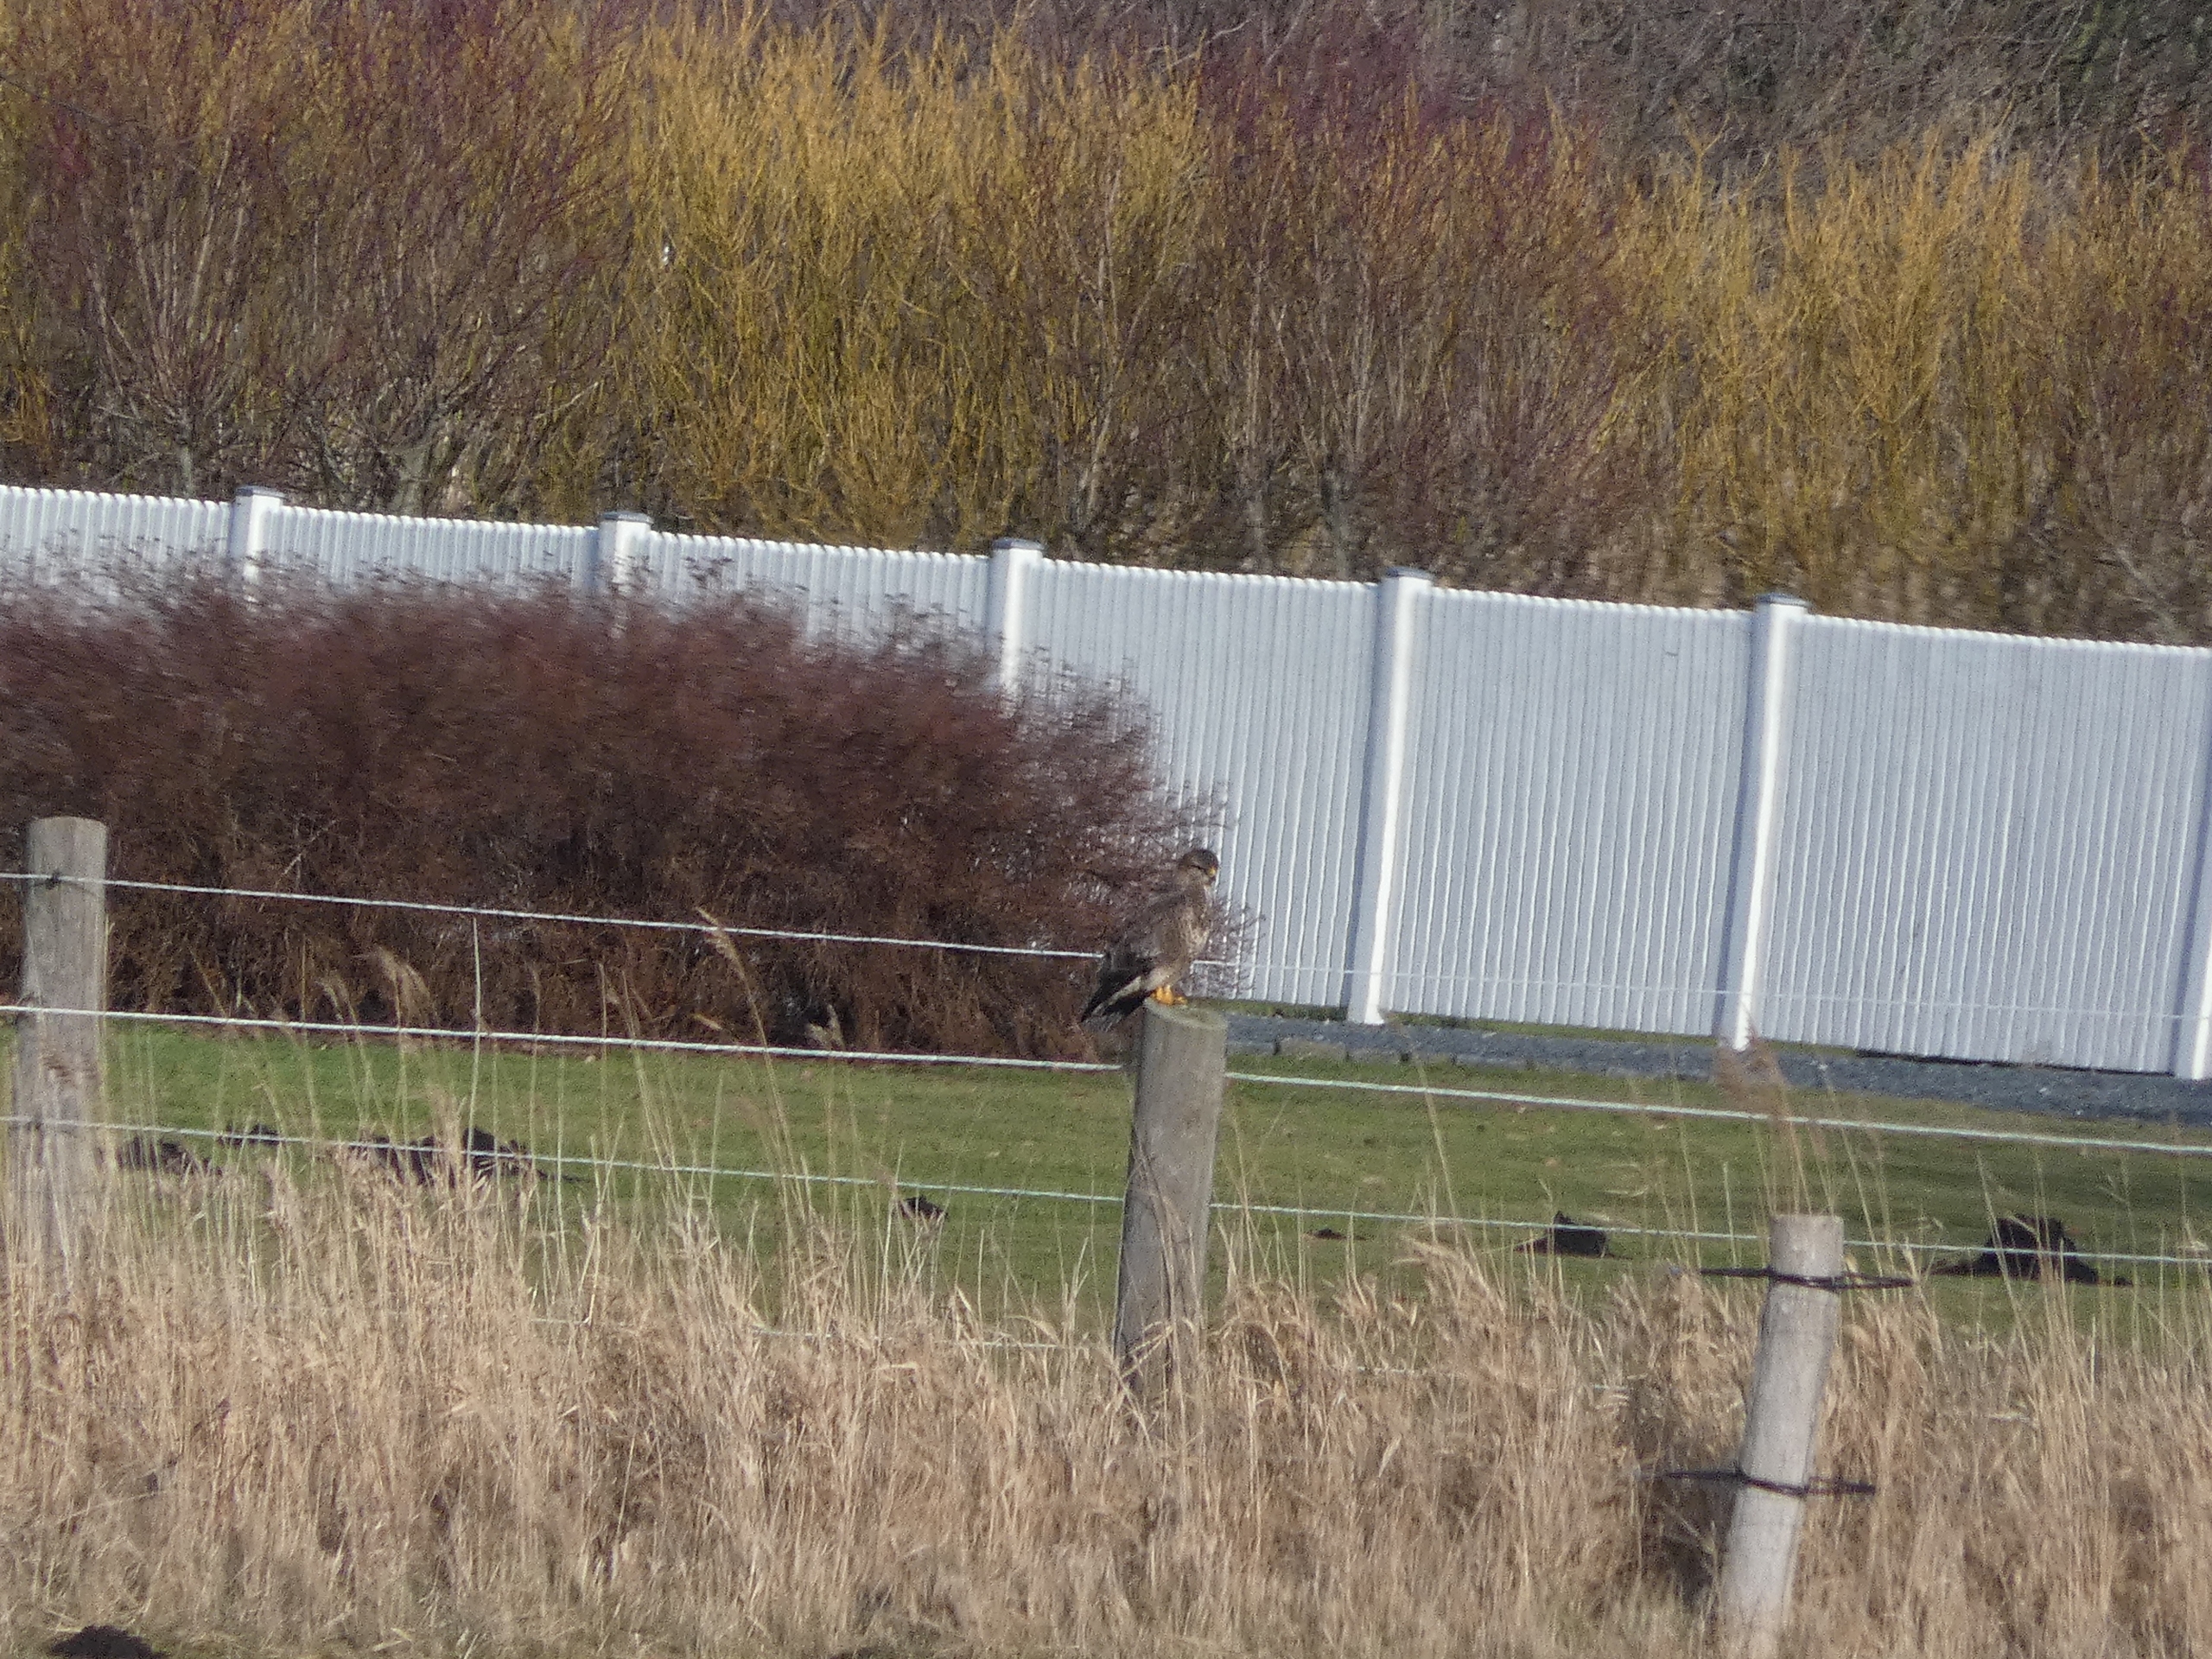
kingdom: Animalia
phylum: Chordata
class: Aves
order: Accipitriformes
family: Accipitridae
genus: Buteo
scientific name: Buteo buteo
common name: Musvåge
